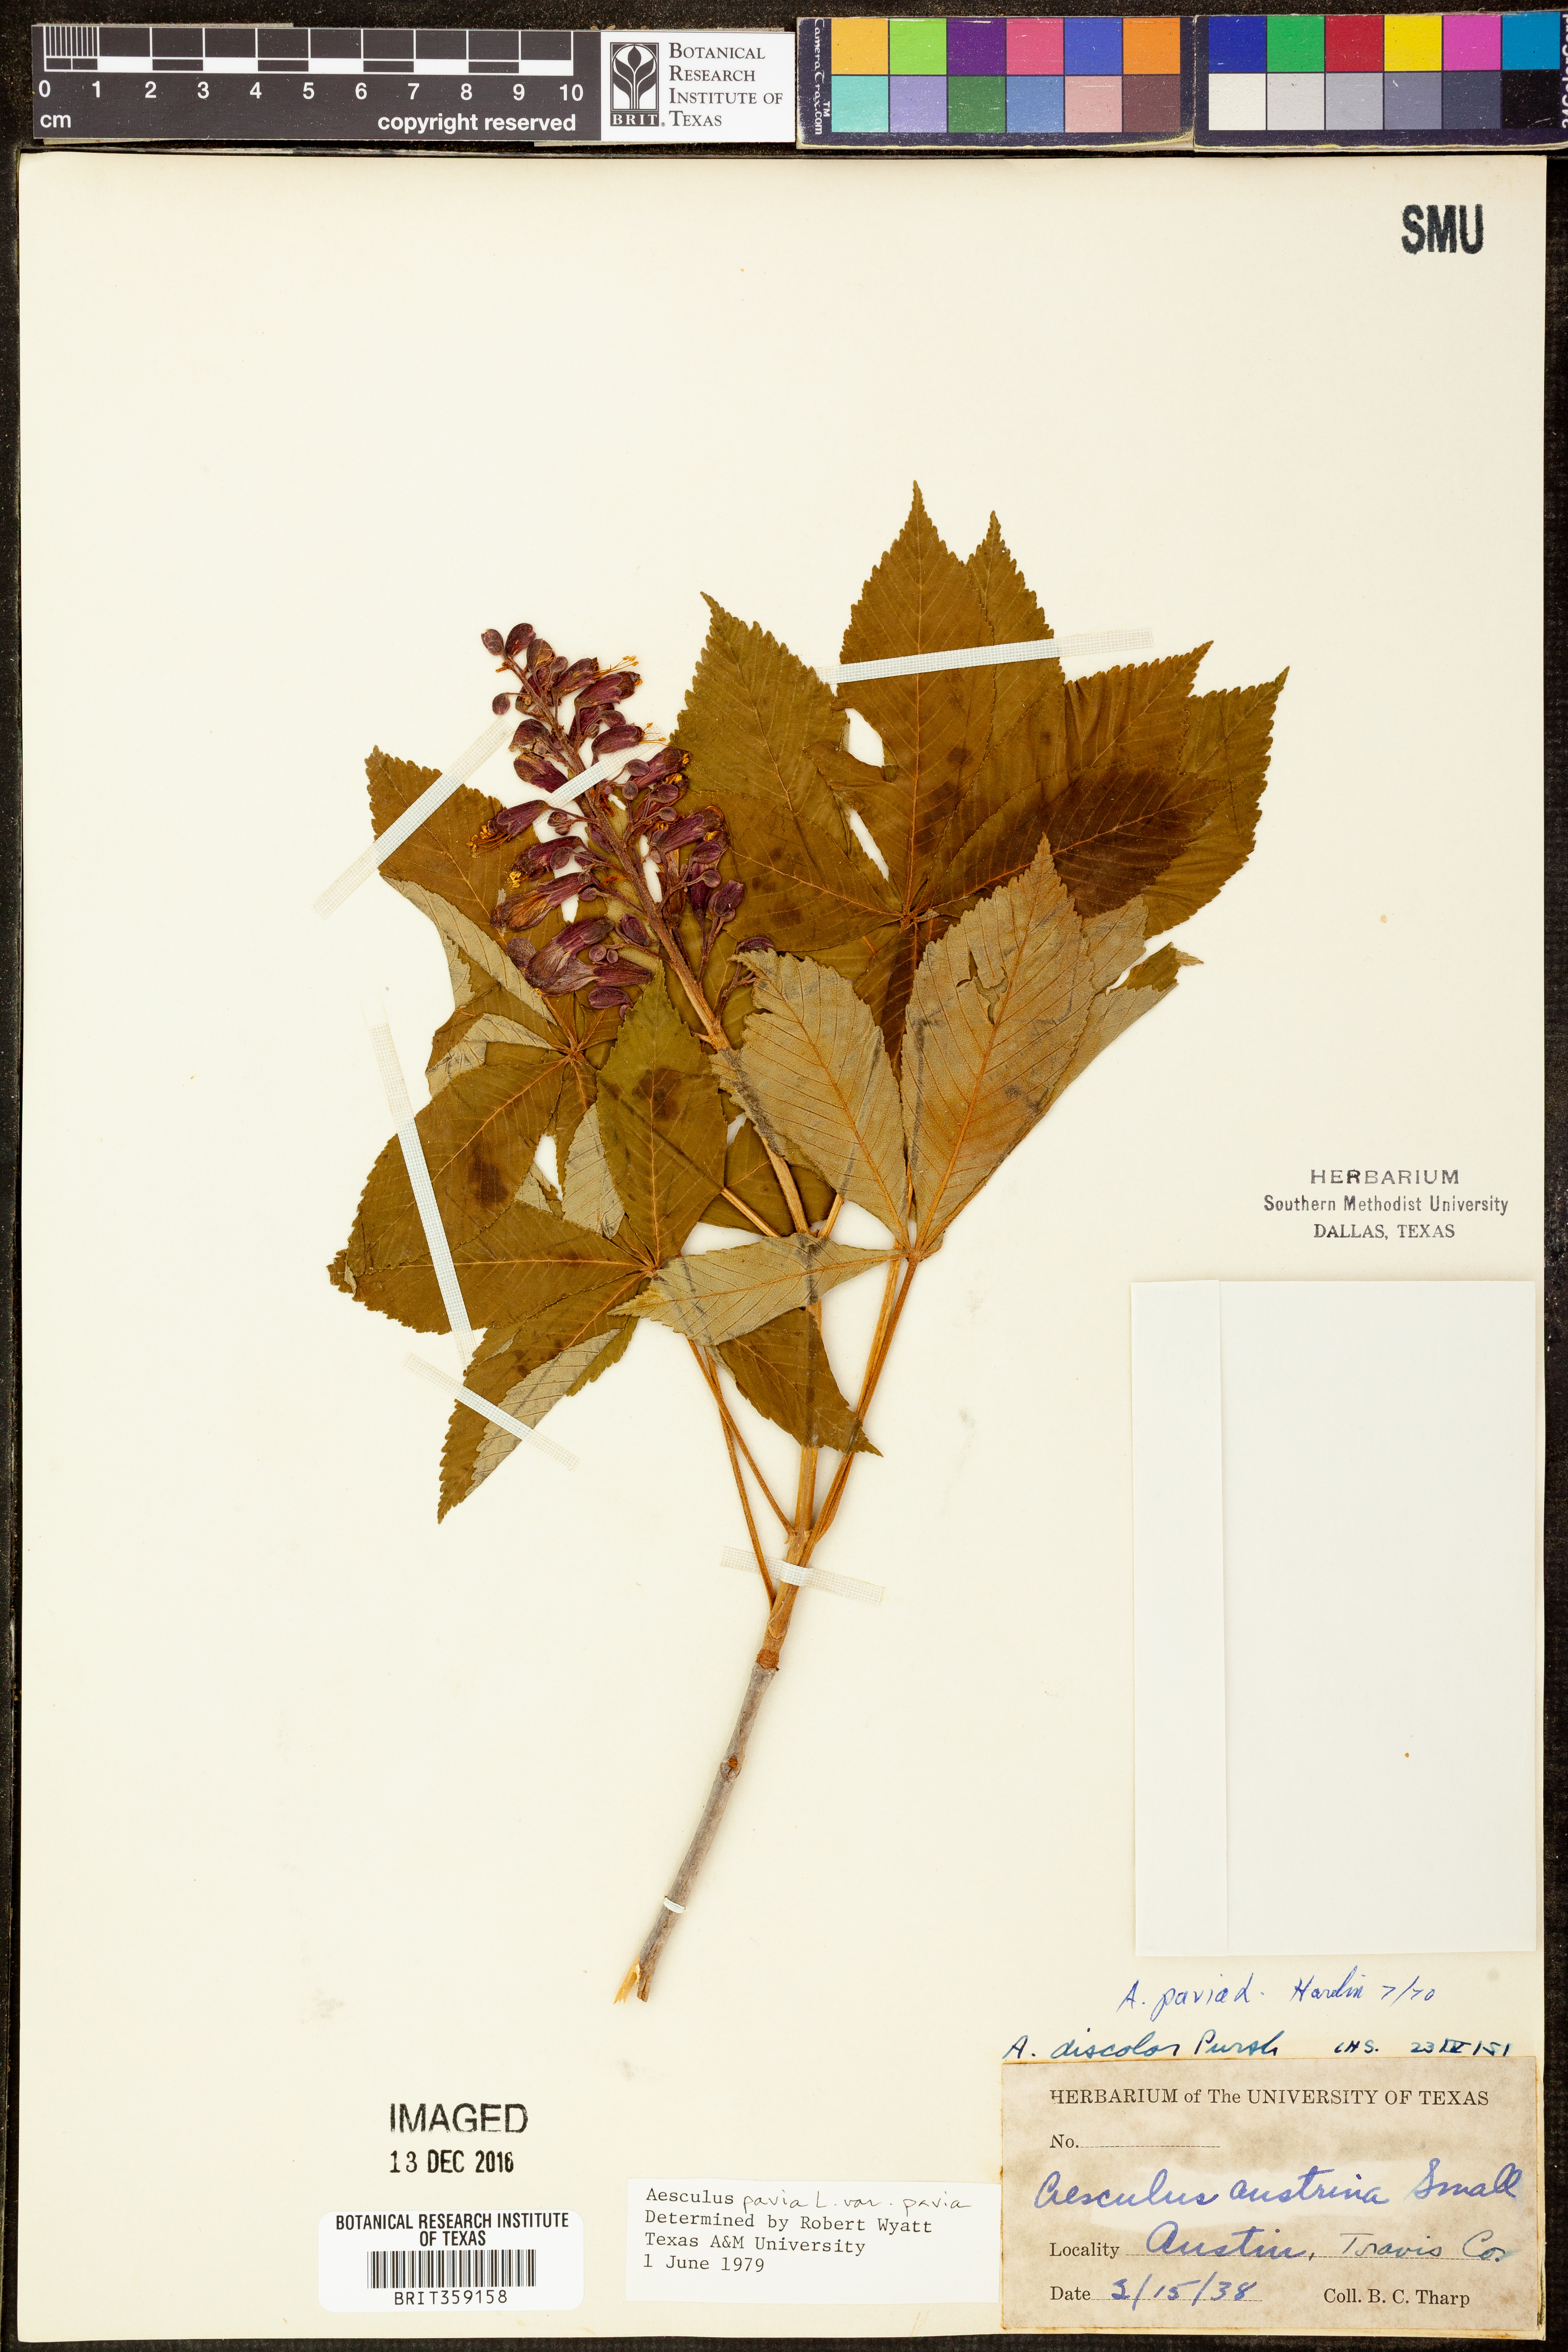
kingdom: Plantae
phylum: Tracheophyta
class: Magnoliopsida
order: Sapindales
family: Sapindaceae
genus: Aesculus
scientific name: Aesculus pavia
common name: Red buckeye
